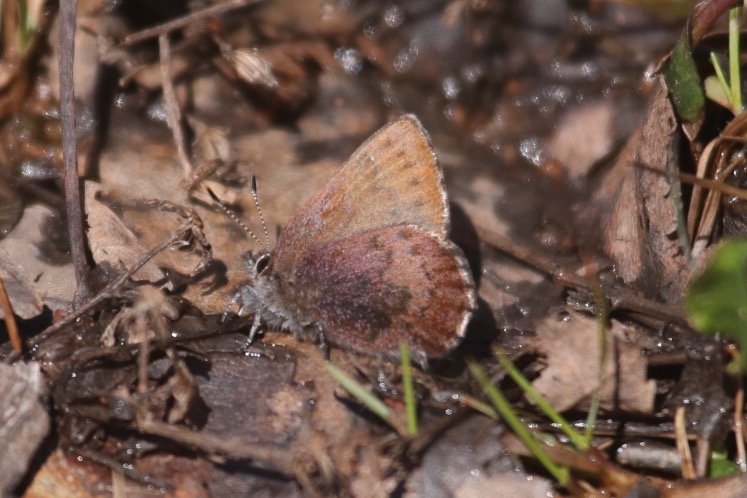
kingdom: Animalia
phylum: Arthropoda
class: Insecta
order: Lepidoptera
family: Lycaenidae
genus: Incisalia
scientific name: Incisalia irioides
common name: Brown Elfin
